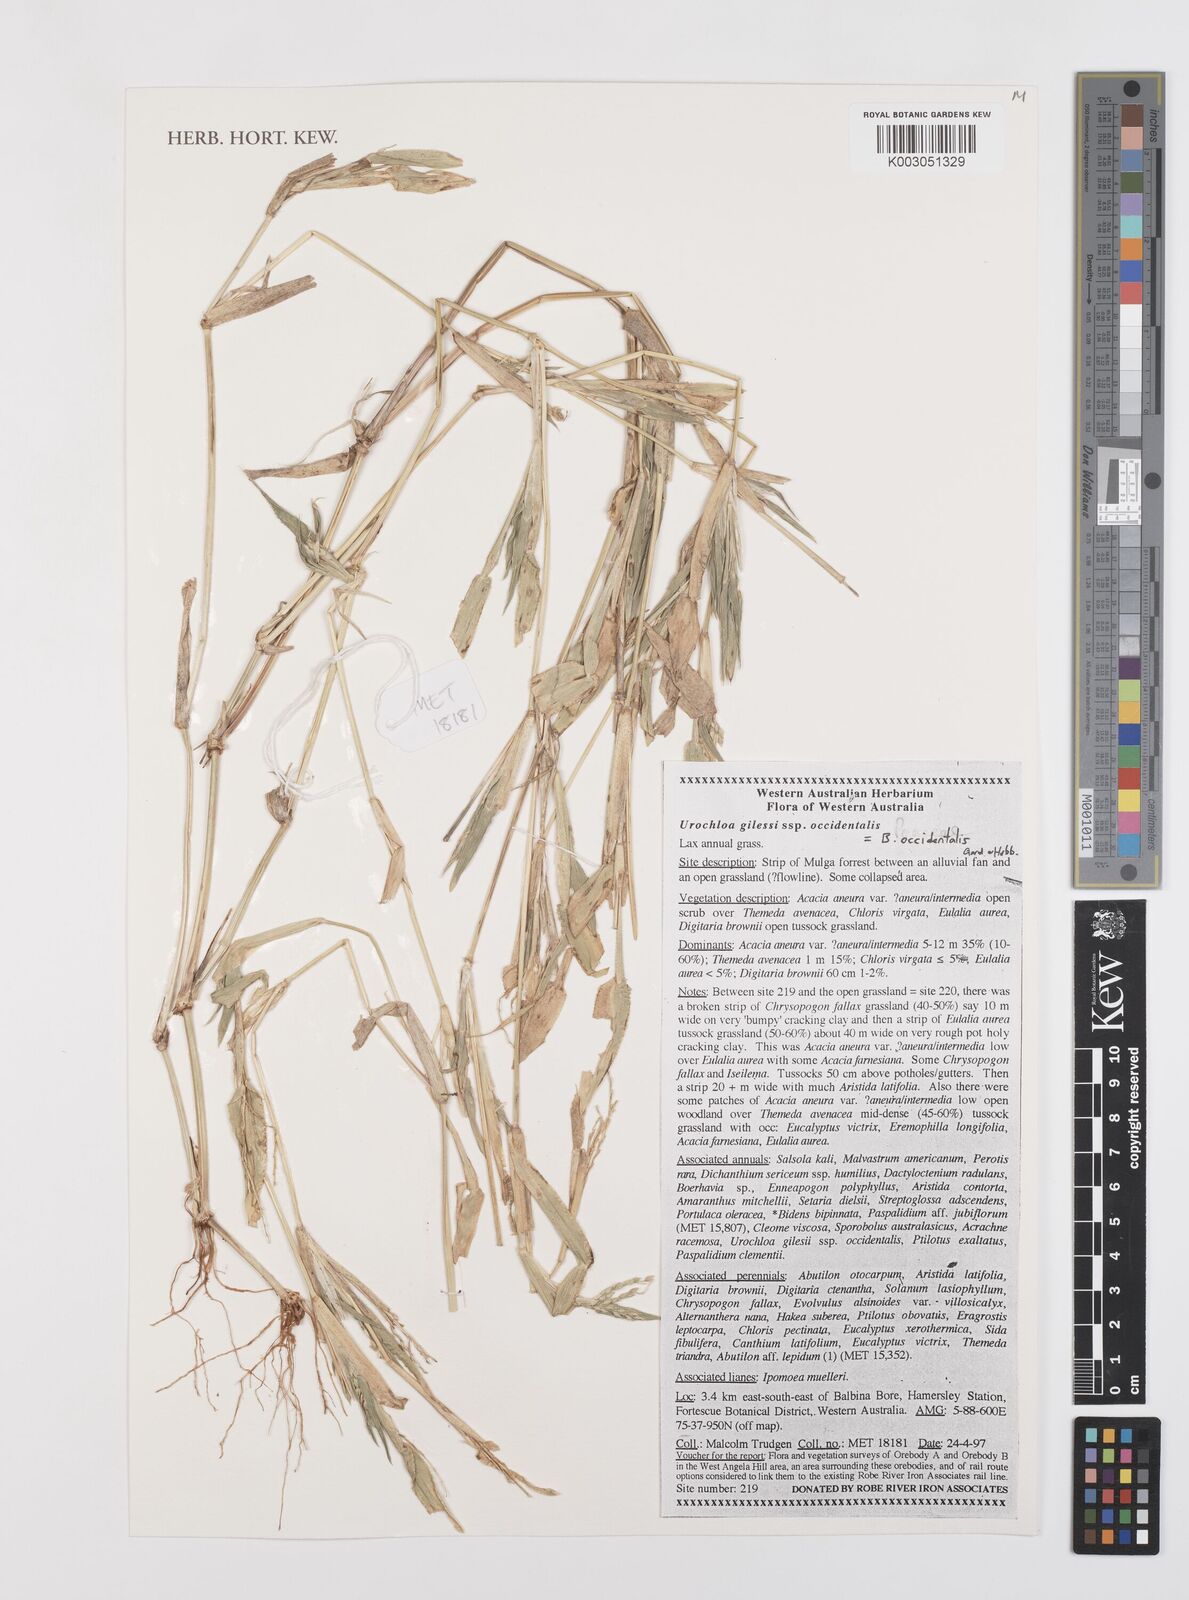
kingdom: Plantae
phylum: Tracheophyta
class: Liliopsida
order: Poales
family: Poaceae
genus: Urochloa
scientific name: Urochloa occidentalis
